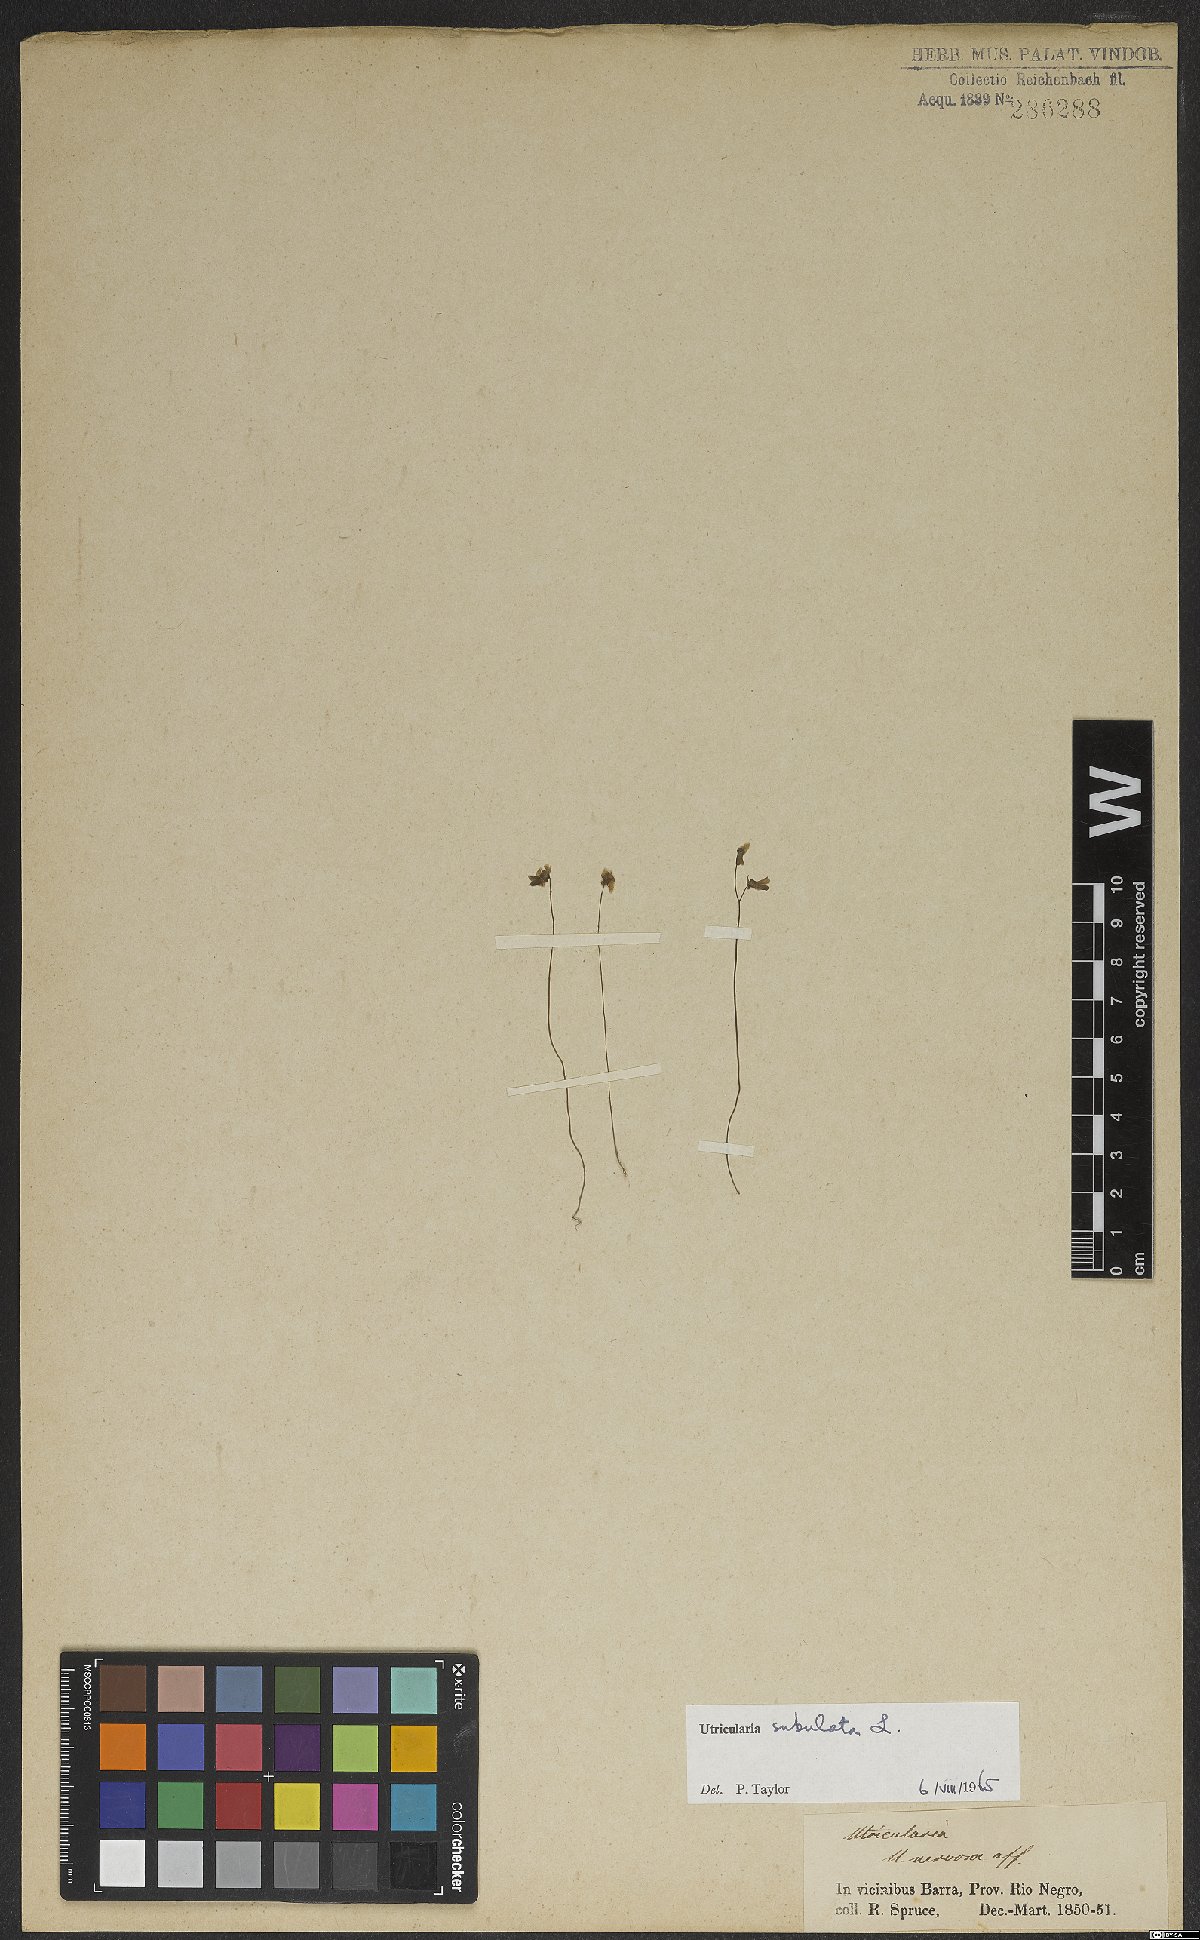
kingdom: Plantae
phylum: Tracheophyta
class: Magnoliopsida
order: Lamiales
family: Lentibulariaceae
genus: Utricularia
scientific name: Utricularia subulata
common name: Tiny bladderwort
